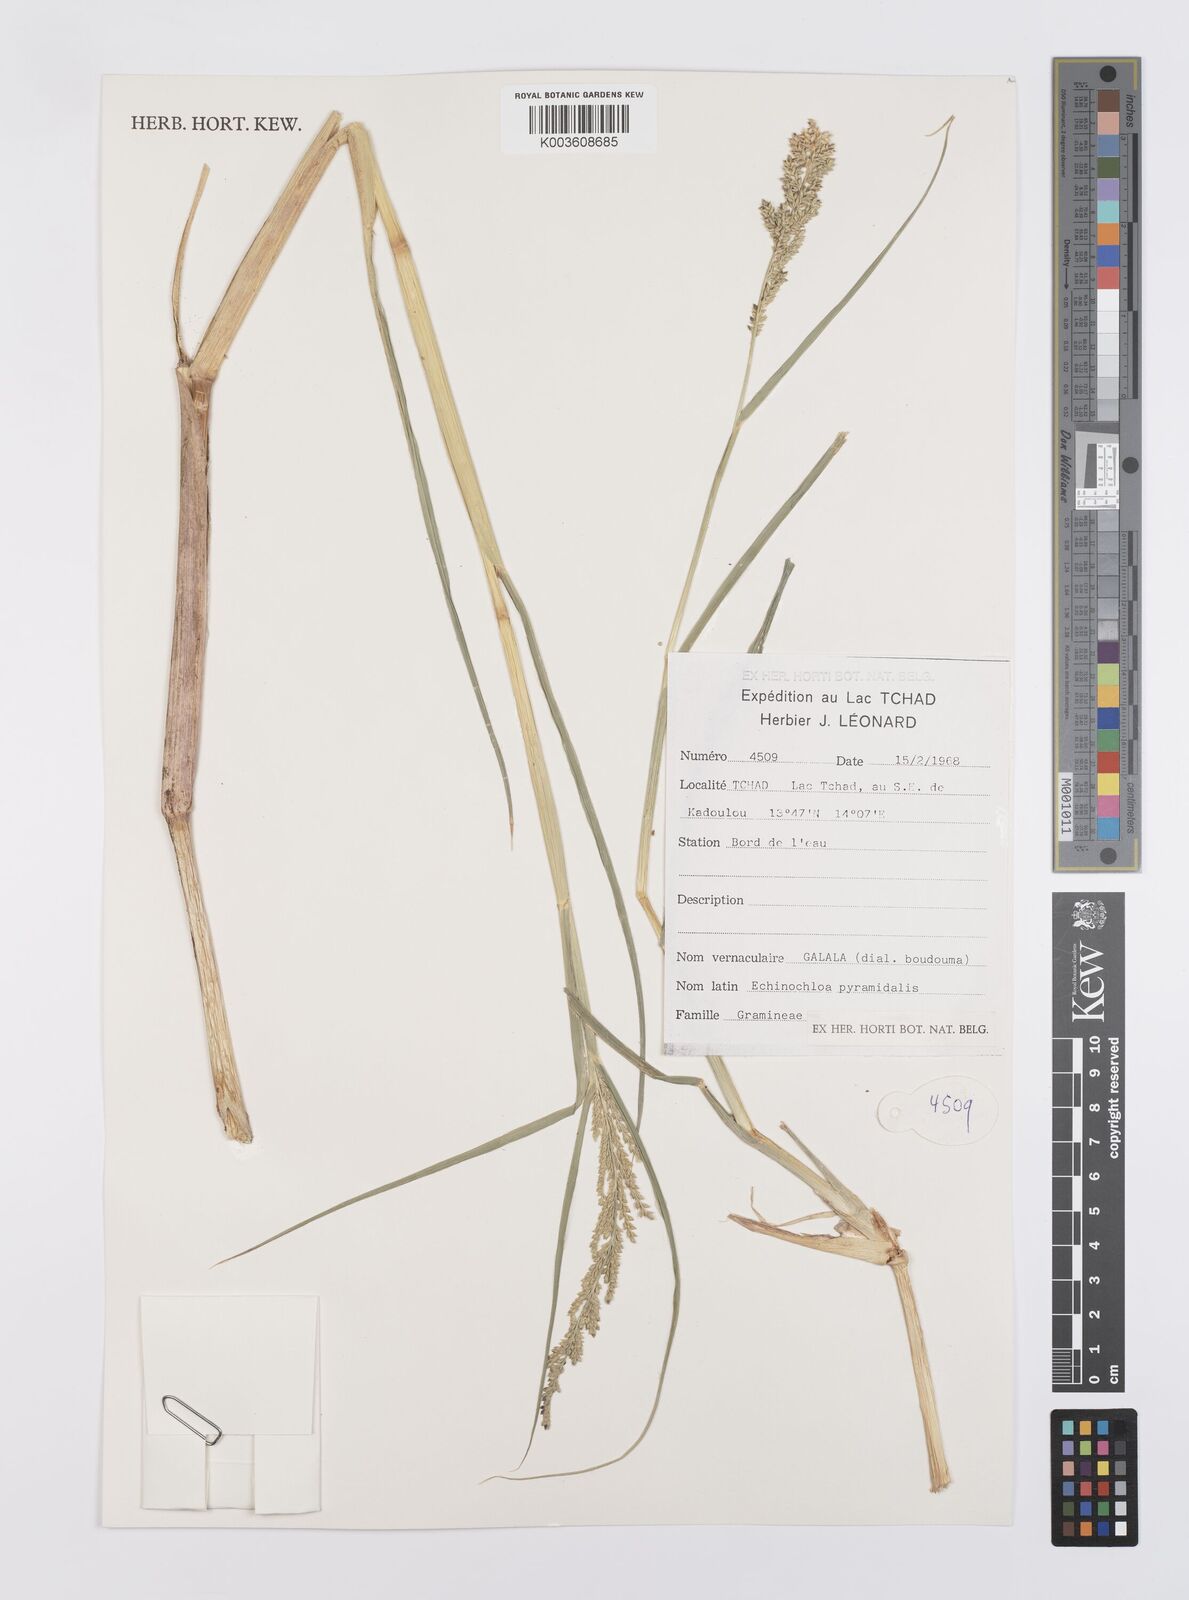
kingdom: Plantae
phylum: Tracheophyta
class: Liliopsida
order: Poales
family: Poaceae
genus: Echinochloa
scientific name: Echinochloa pyramidalis
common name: Antelope grass
